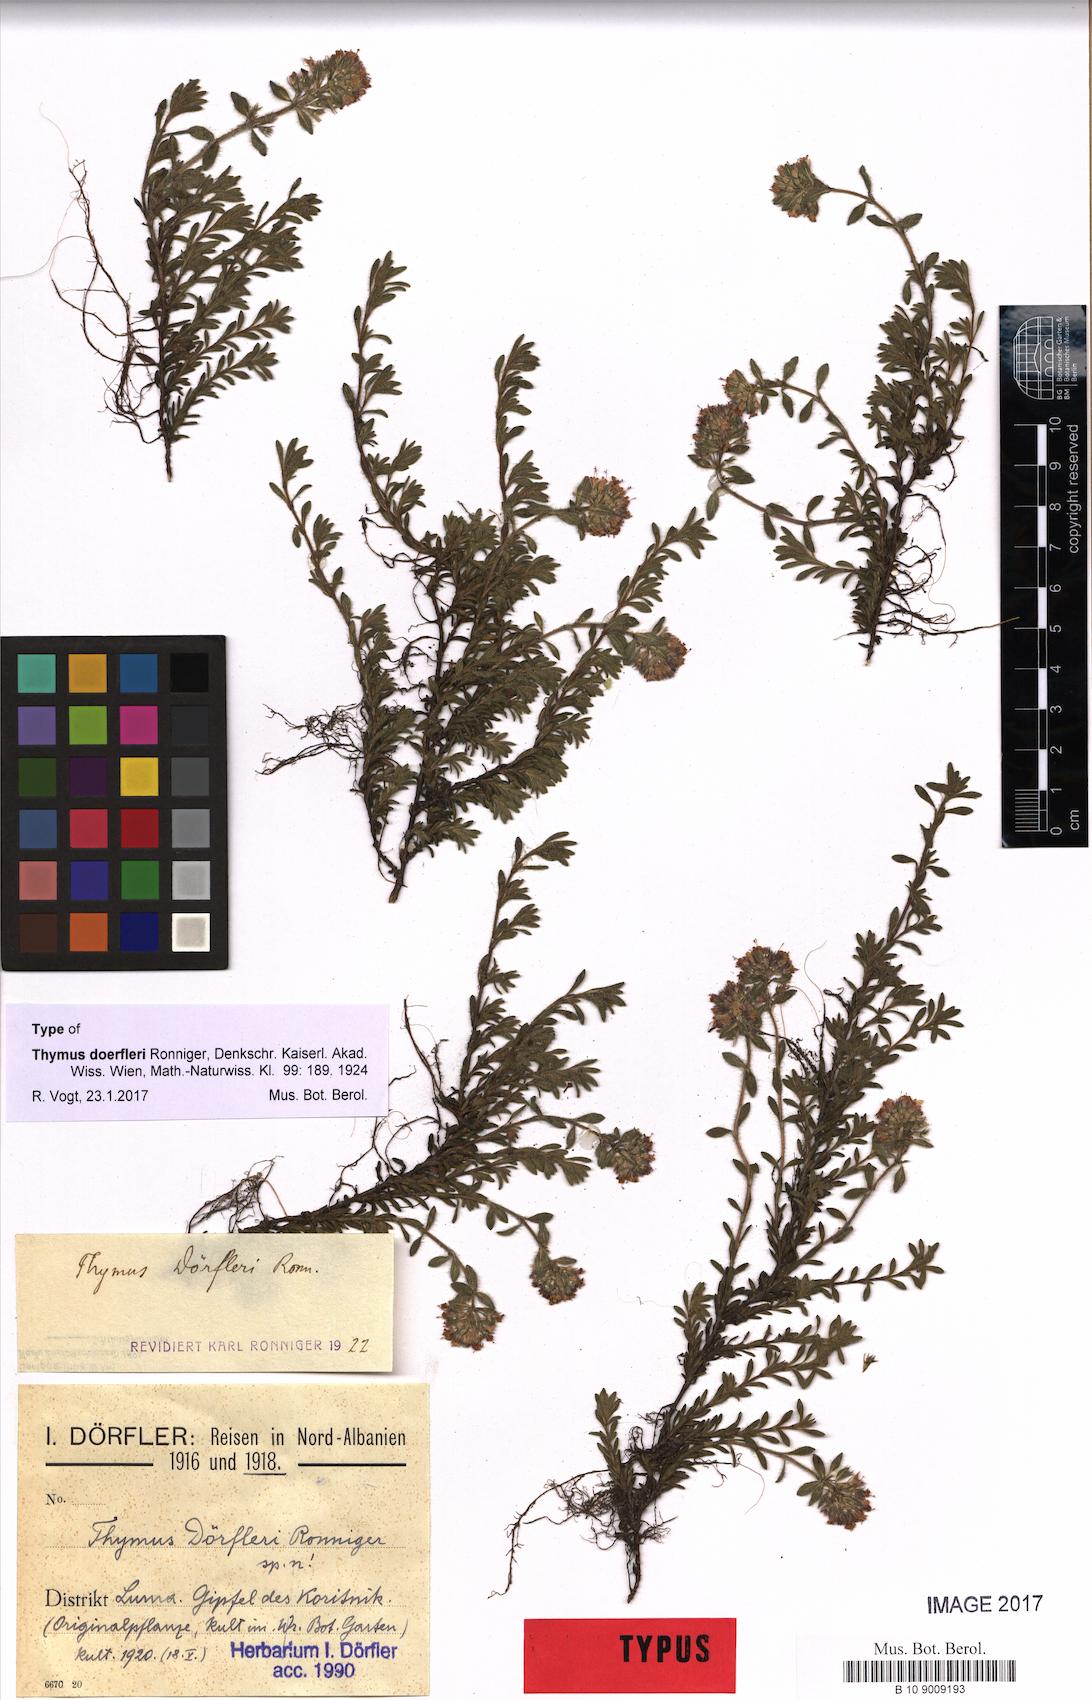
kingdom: Plantae
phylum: Tracheophyta
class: Magnoliopsida
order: Lamiales
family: Lamiaceae
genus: Thymus
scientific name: Thymus doerfleri
